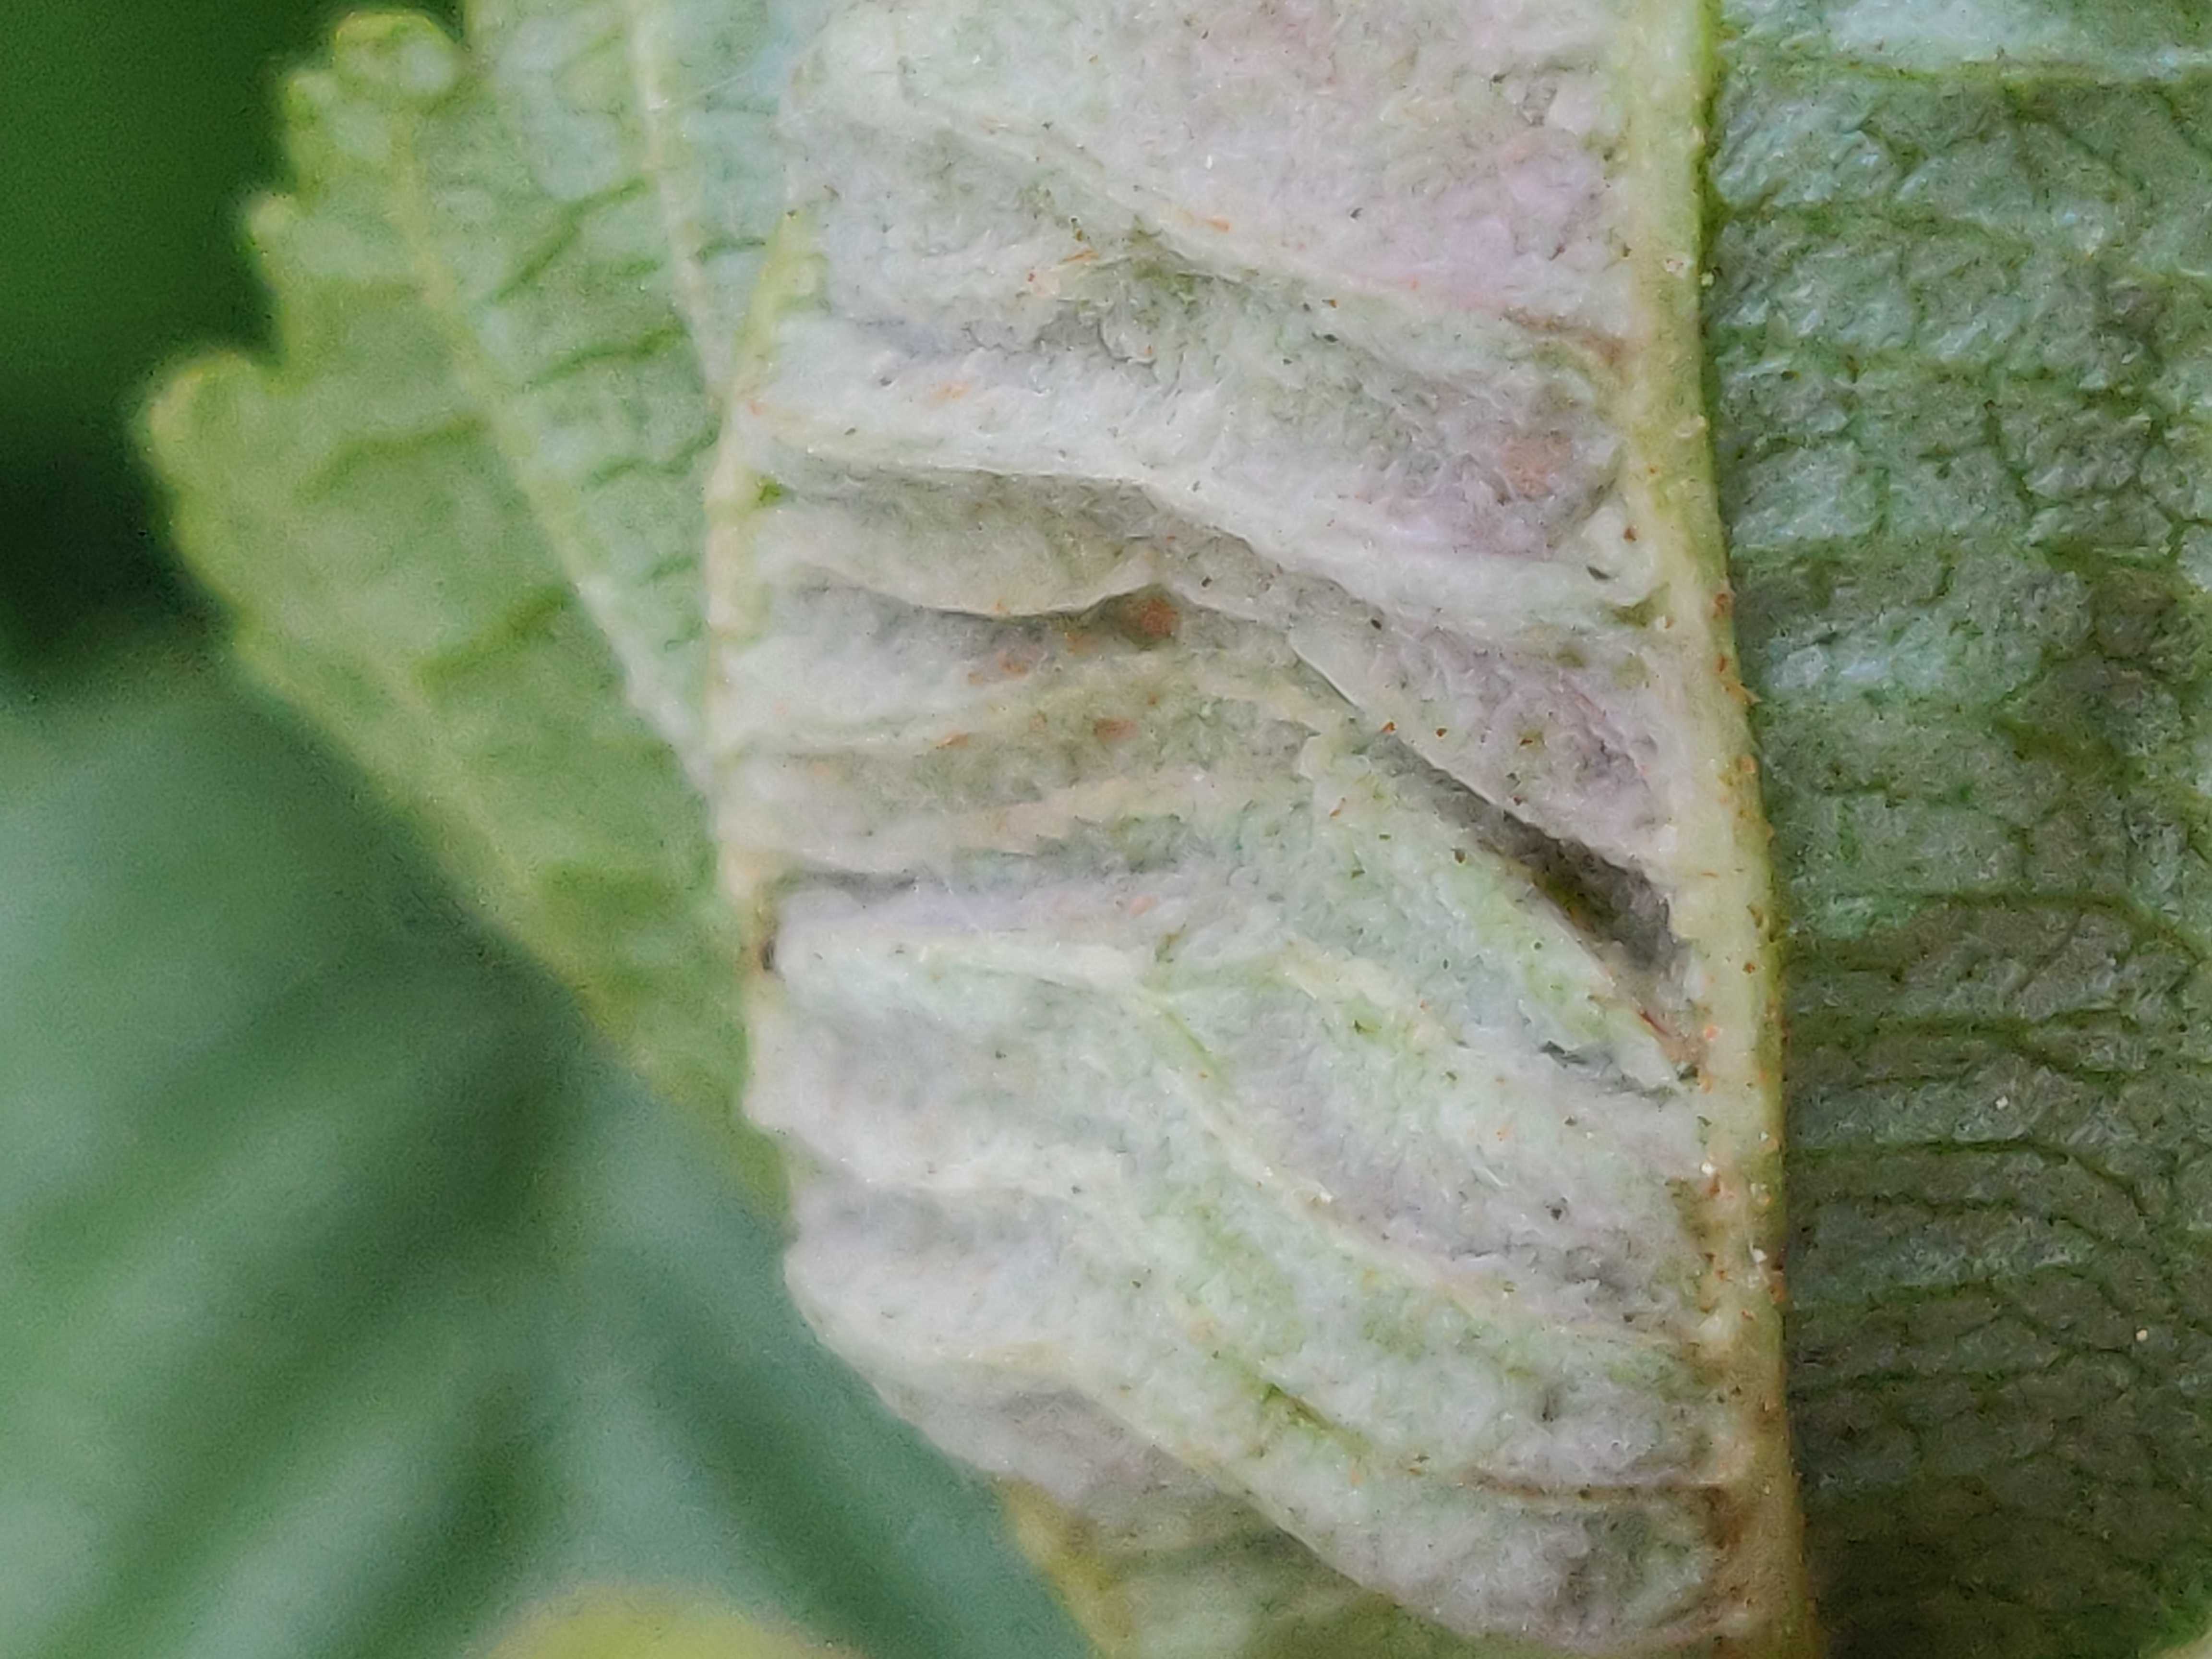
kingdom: Fungi
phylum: Ascomycota
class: Taphrinomycetes
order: Taphrinales
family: Taphrinaceae
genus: Taphrina
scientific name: Taphrina tosquinetii
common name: Alder wrinkle
